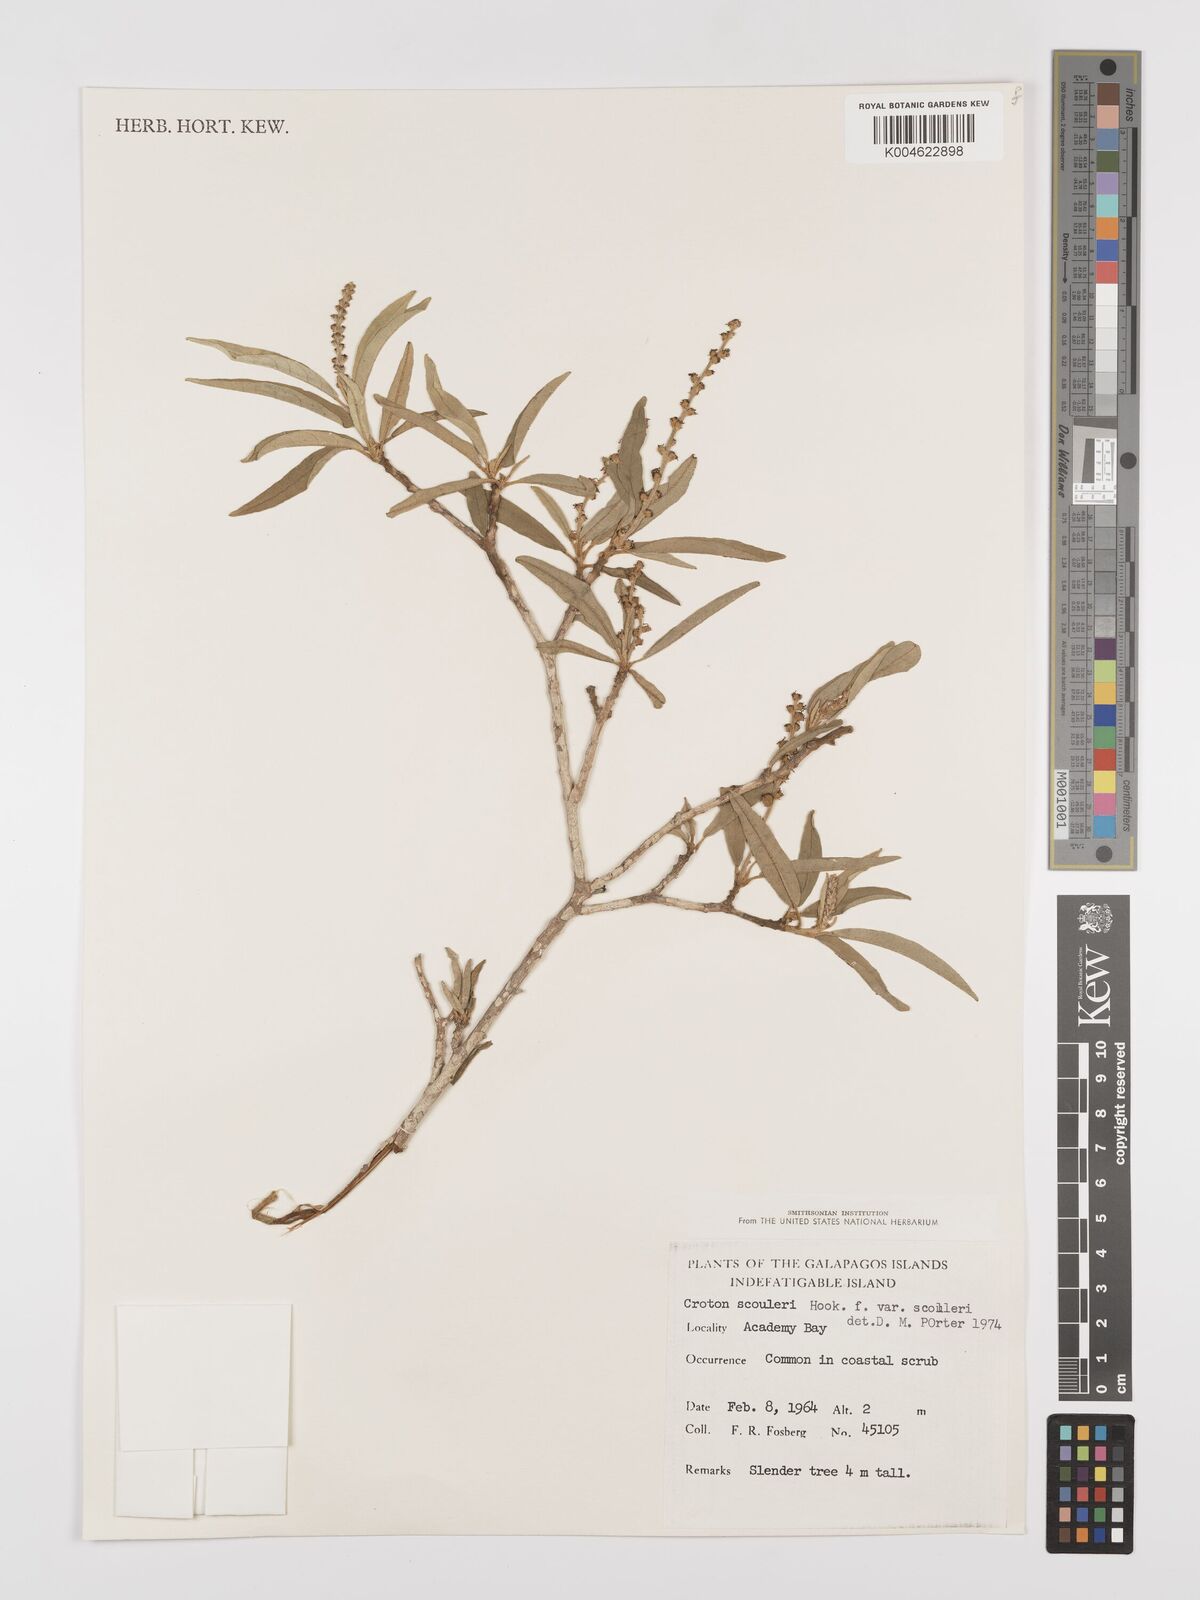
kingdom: Plantae
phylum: Tracheophyta
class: Magnoliopsida
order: Malpighiales
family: Euphorbiaceae
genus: Croton
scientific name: Croton scouleri
